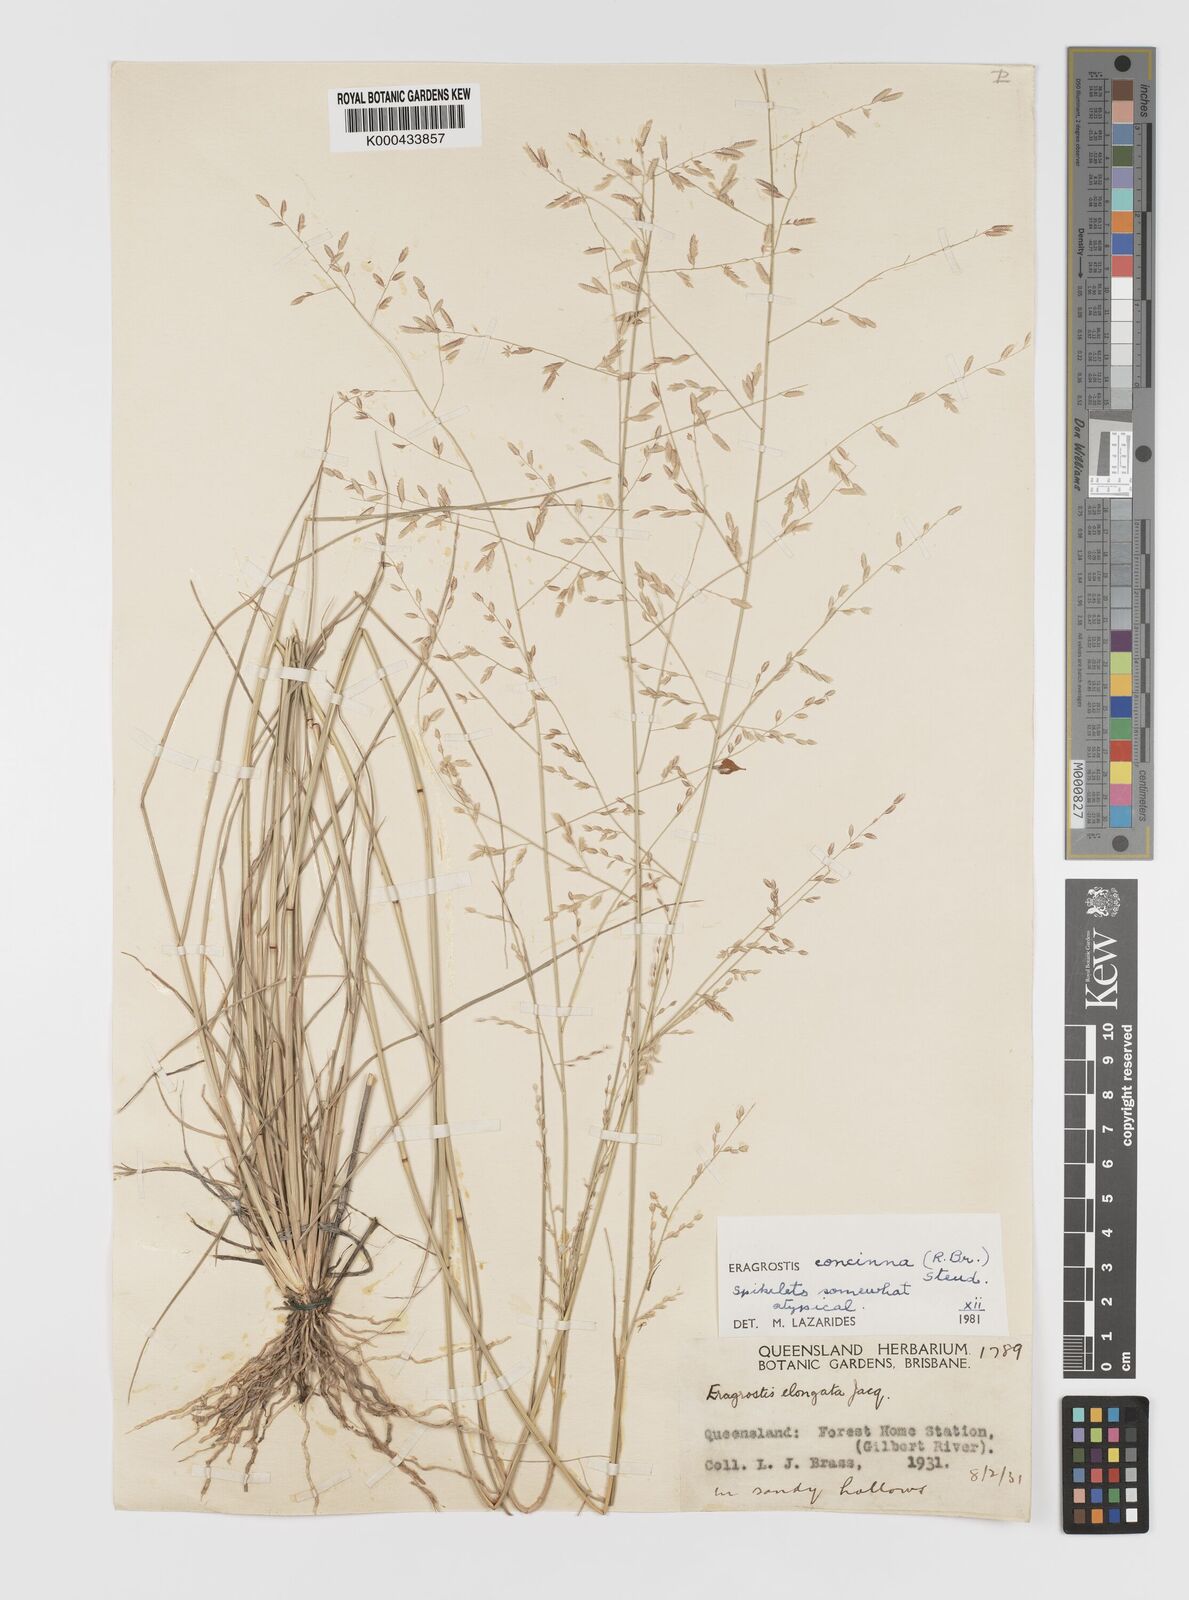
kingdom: Plantae
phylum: Tracheophyta
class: Liliopsida
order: Poales
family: Poaceae
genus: Eragrostis
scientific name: Eragrostis concinna
